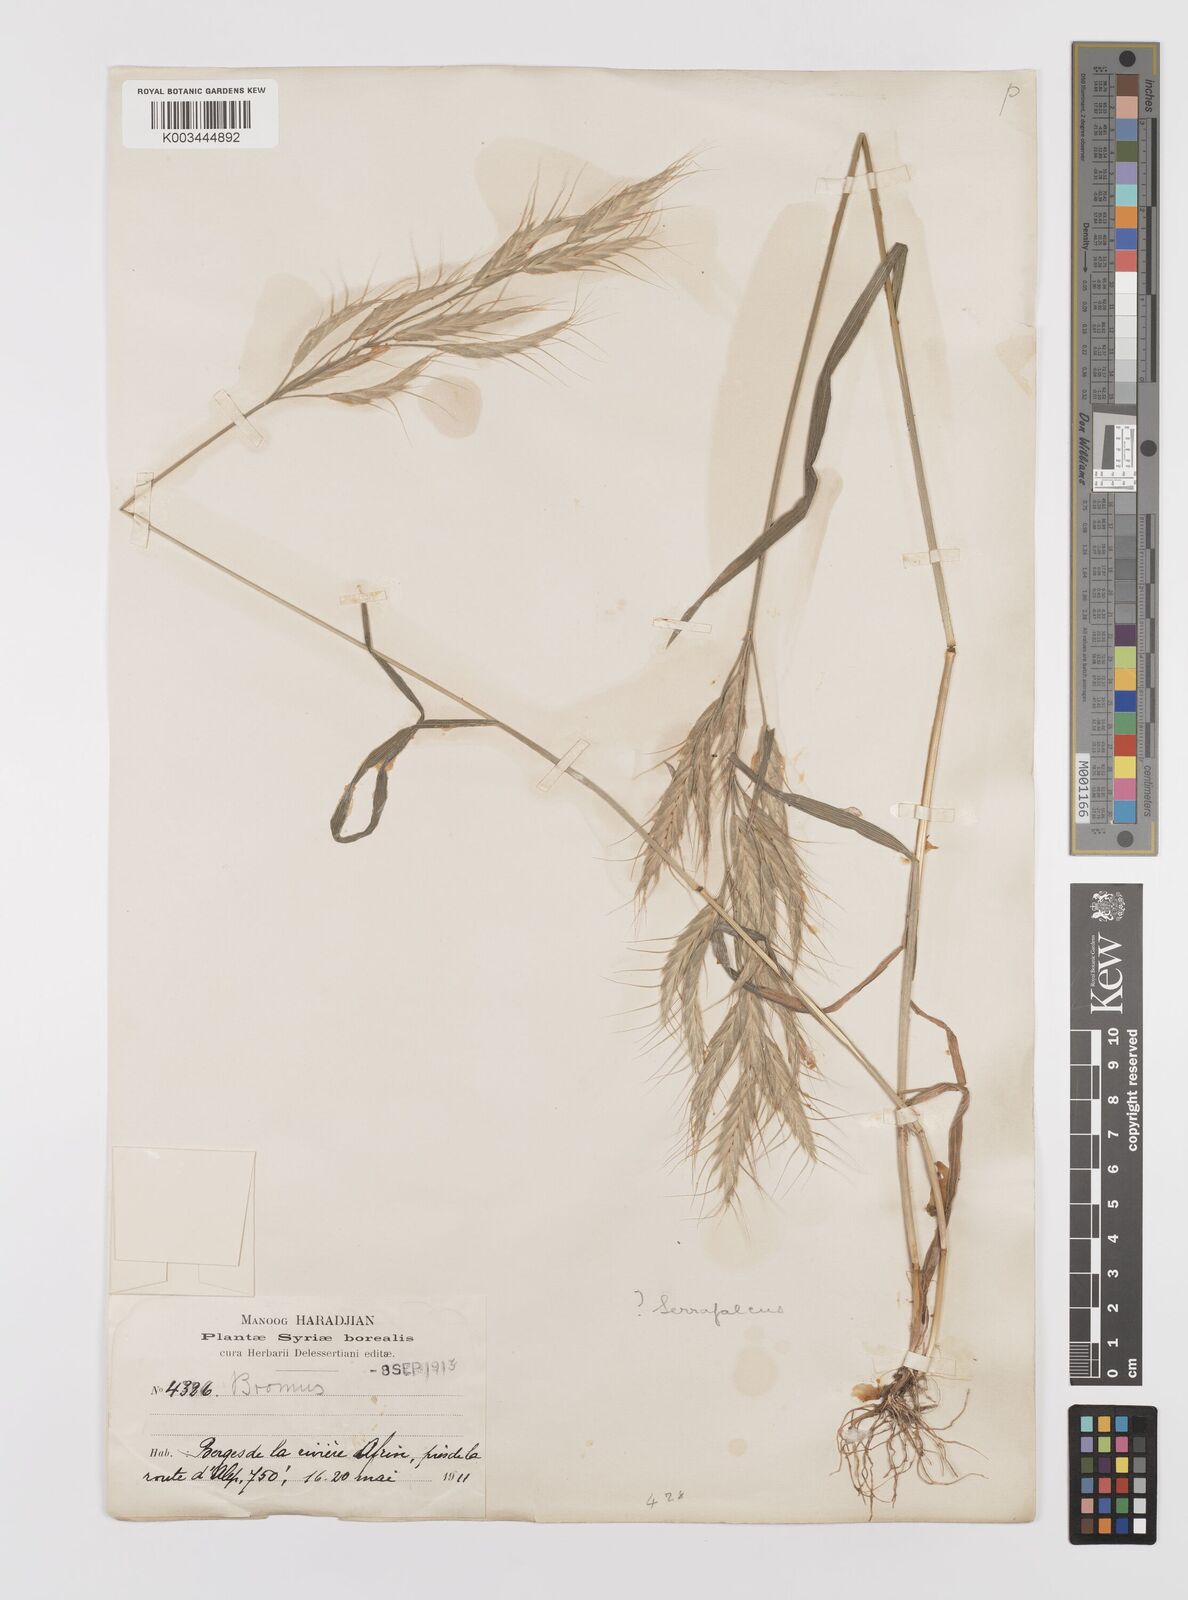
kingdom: Plantae
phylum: Tracheophyta
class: Liliopsida
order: Poales
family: Poaceae
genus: Bromus
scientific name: Bromus lanceolatus
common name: Mediterranean brome
